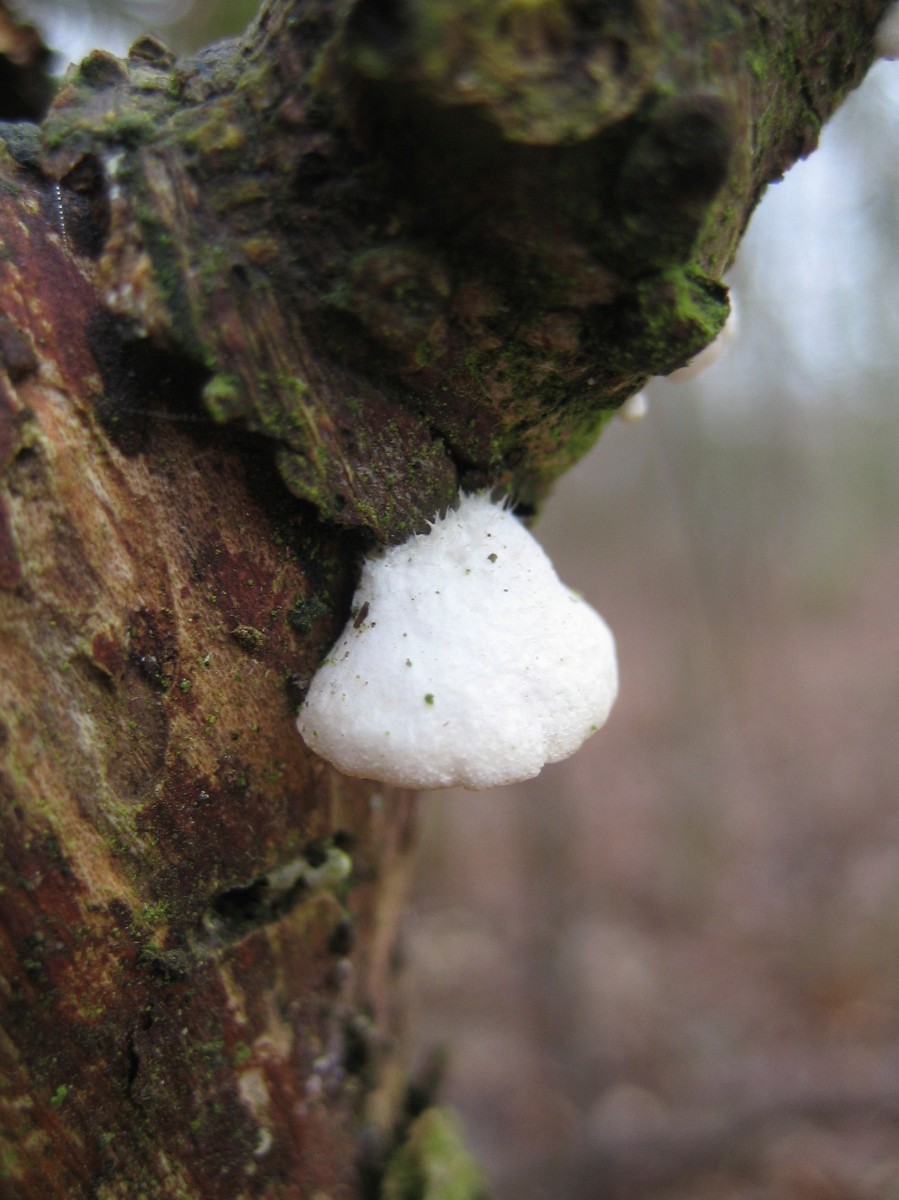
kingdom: Fungi
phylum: Basidiomycota
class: Agaricomycetes
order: Agaricales
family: Crepidotaceae
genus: Crepidotus
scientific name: Crepidotus
